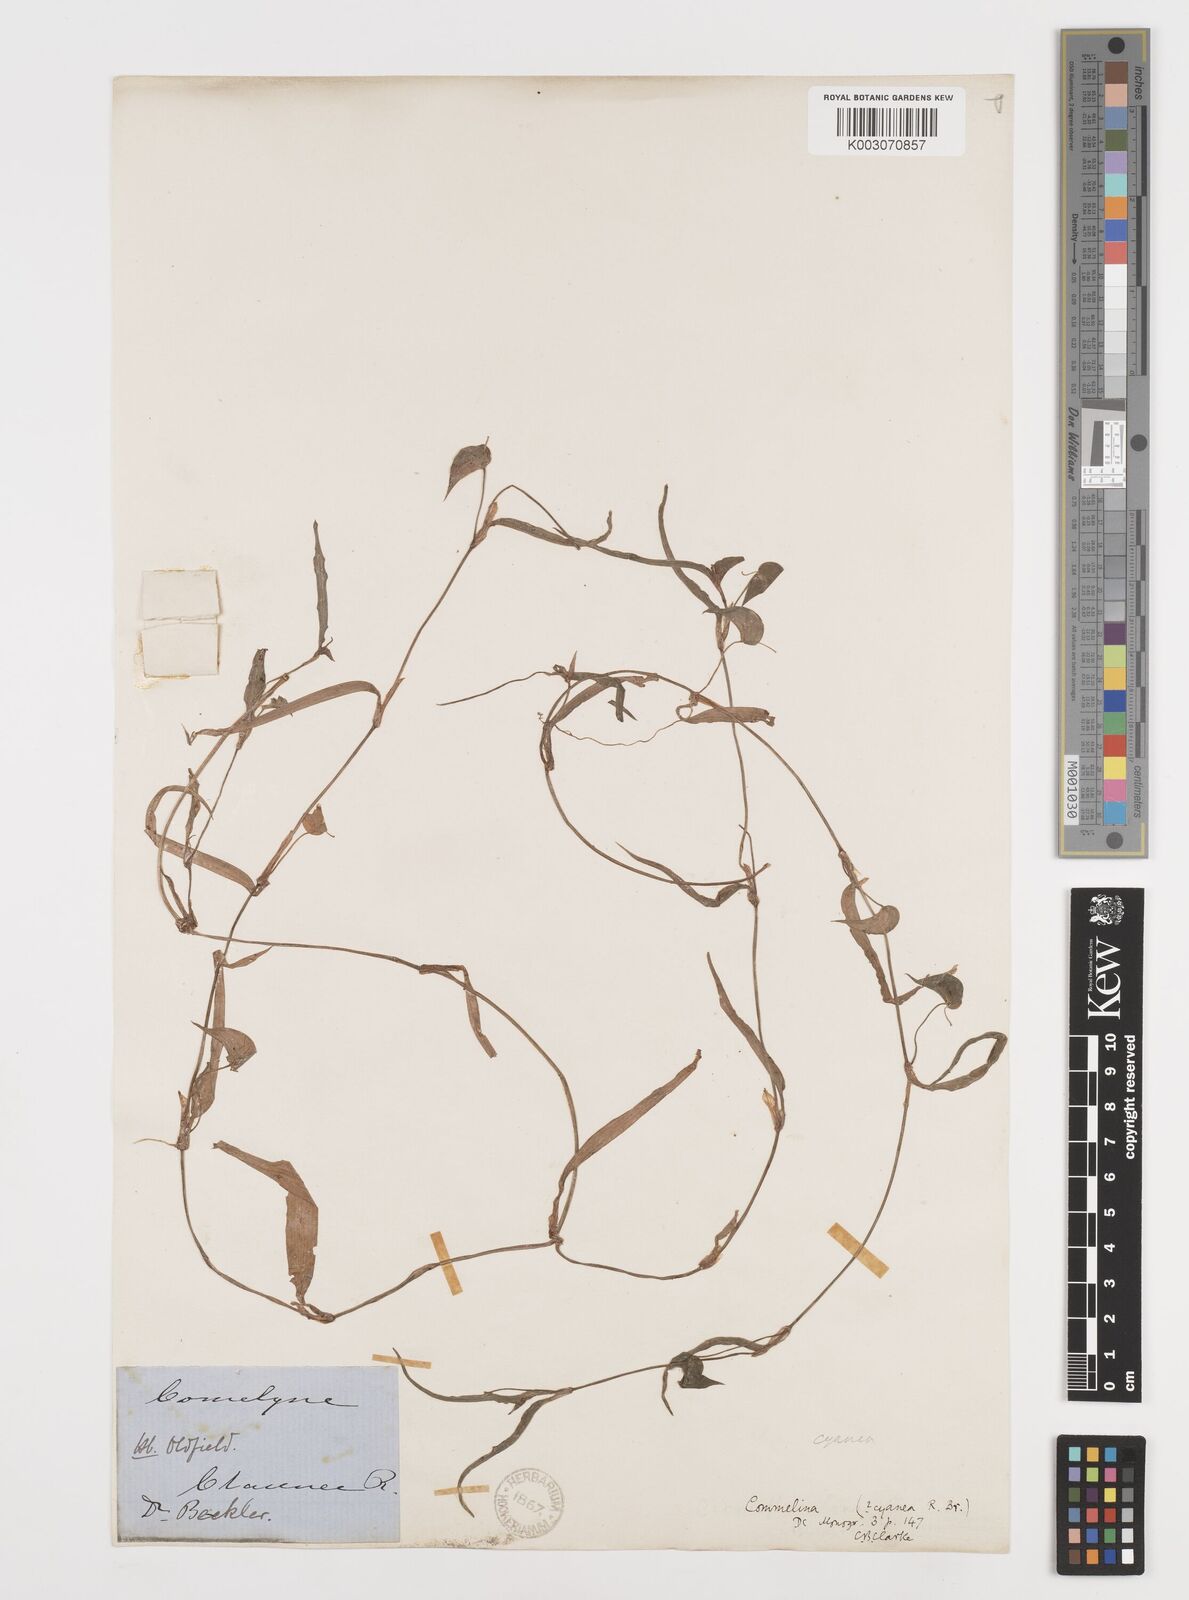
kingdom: Plantae
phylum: Tracheophyta
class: Liliopsida
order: Commelinales
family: Commelinaceae
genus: Commelina
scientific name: Commelina cyanea
